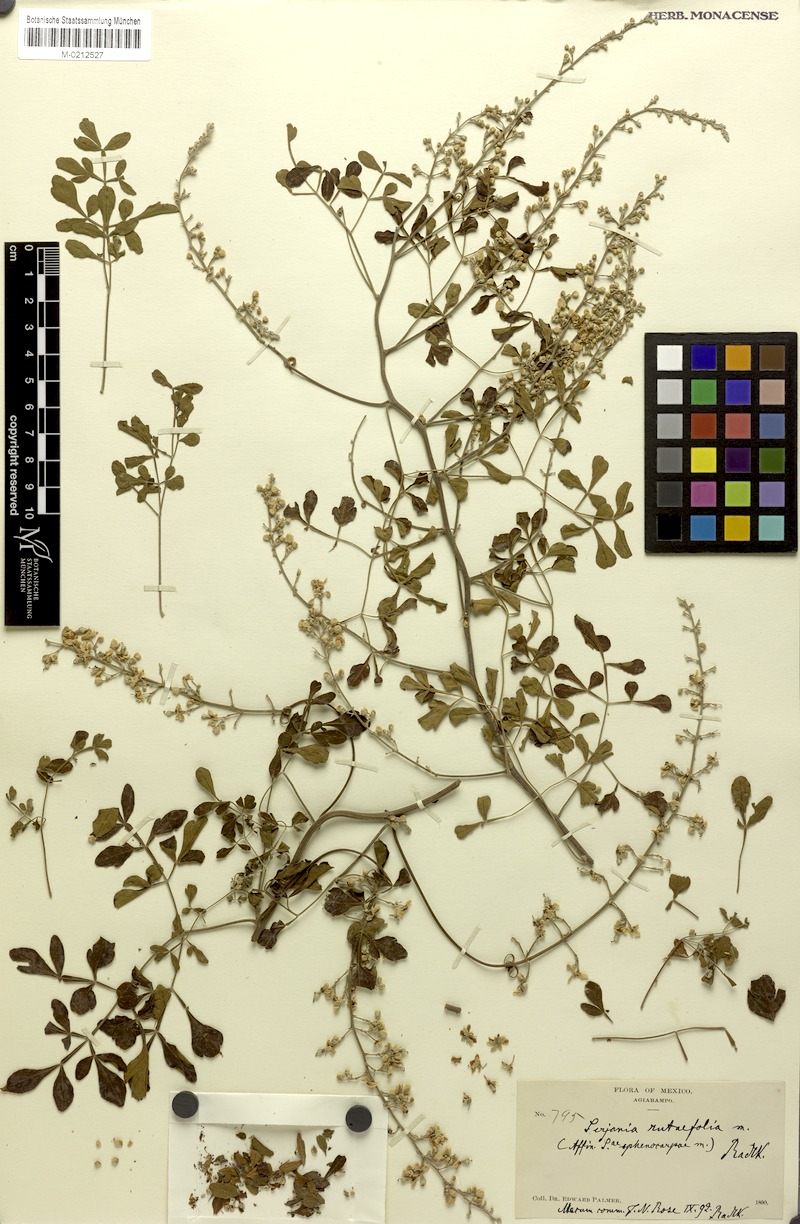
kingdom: Plantae
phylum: Tracheophyta
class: Magnoliopsida
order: Sapindales
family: Sapindaceae
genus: Serjania
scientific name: Serjania rutaefolia
